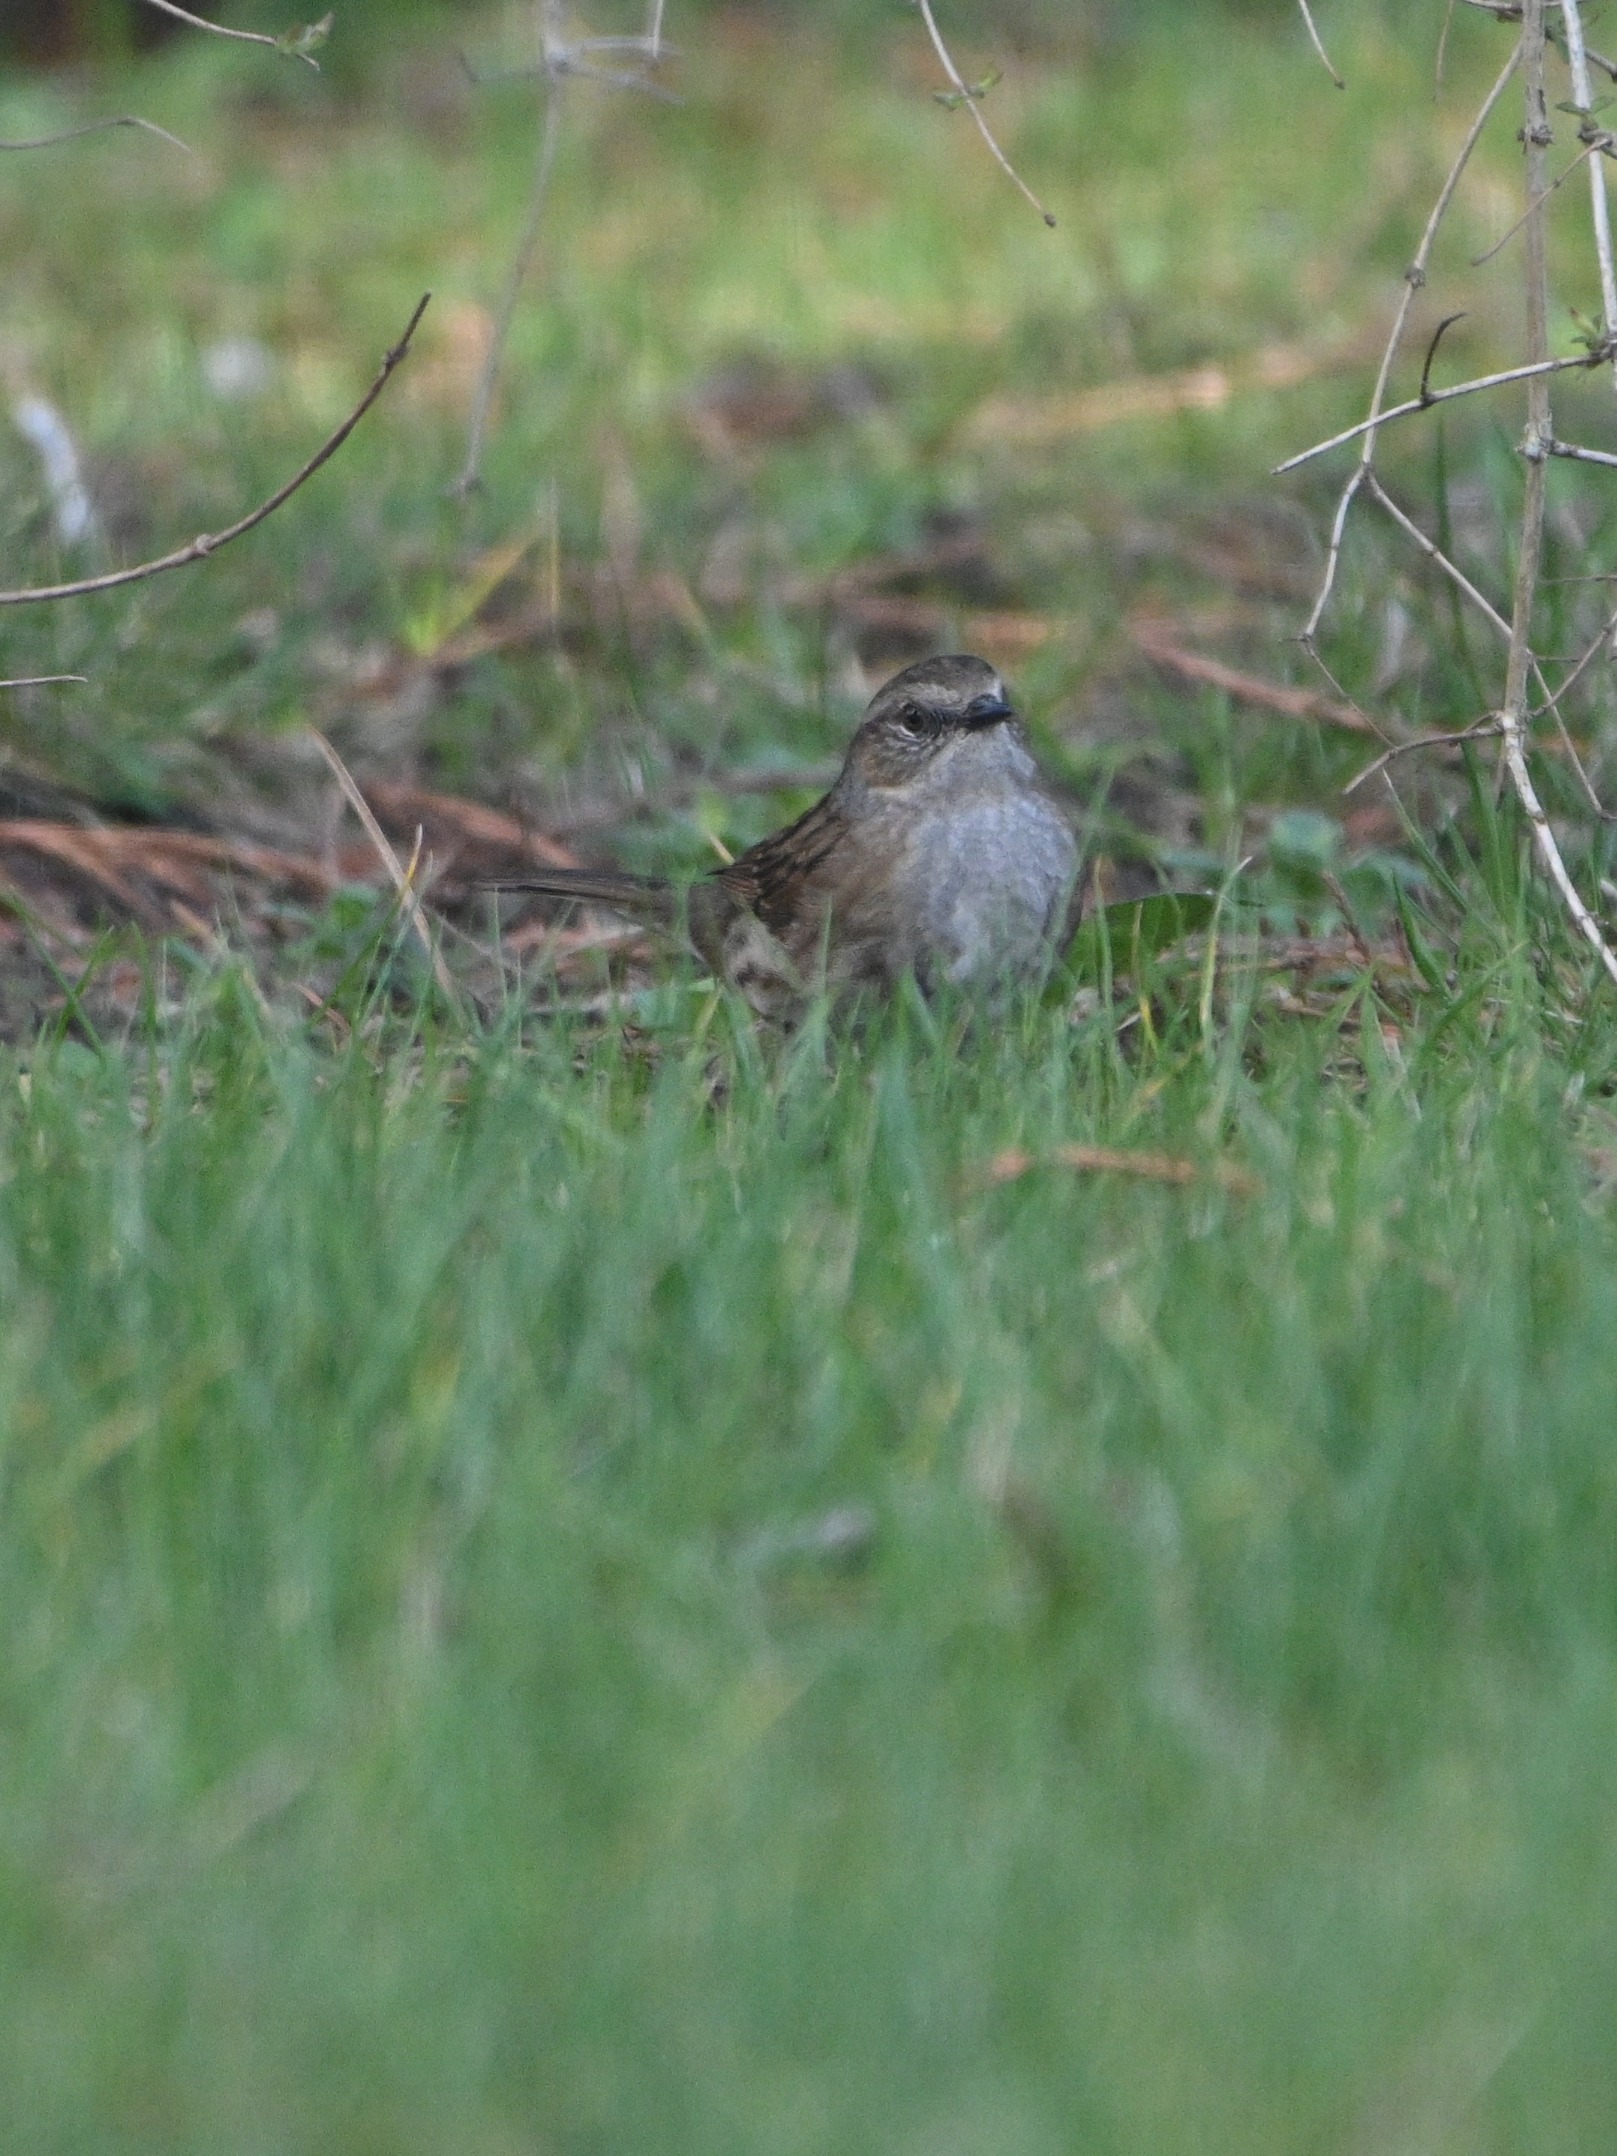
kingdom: Animalia
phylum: Chordata
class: Aves
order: Passeriformes
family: Prunellidae
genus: Prunella
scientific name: Prunella modularis
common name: Jernspurv
